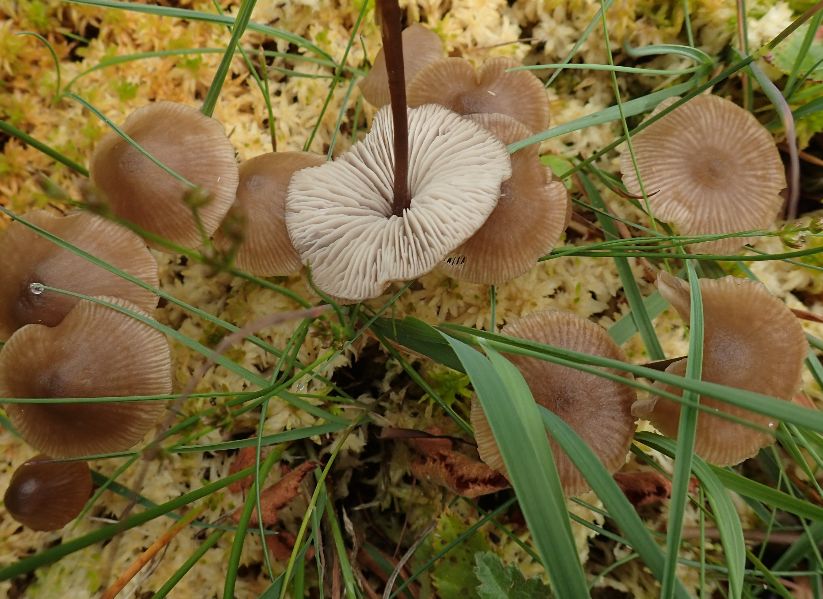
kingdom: Fungi
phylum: Basidiomycota
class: Agaricomycetes
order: Agaricales
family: Lyophyllaceae
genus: Sphagnurus
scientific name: Sphagnurus paluster
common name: tørvemos-gråblad
